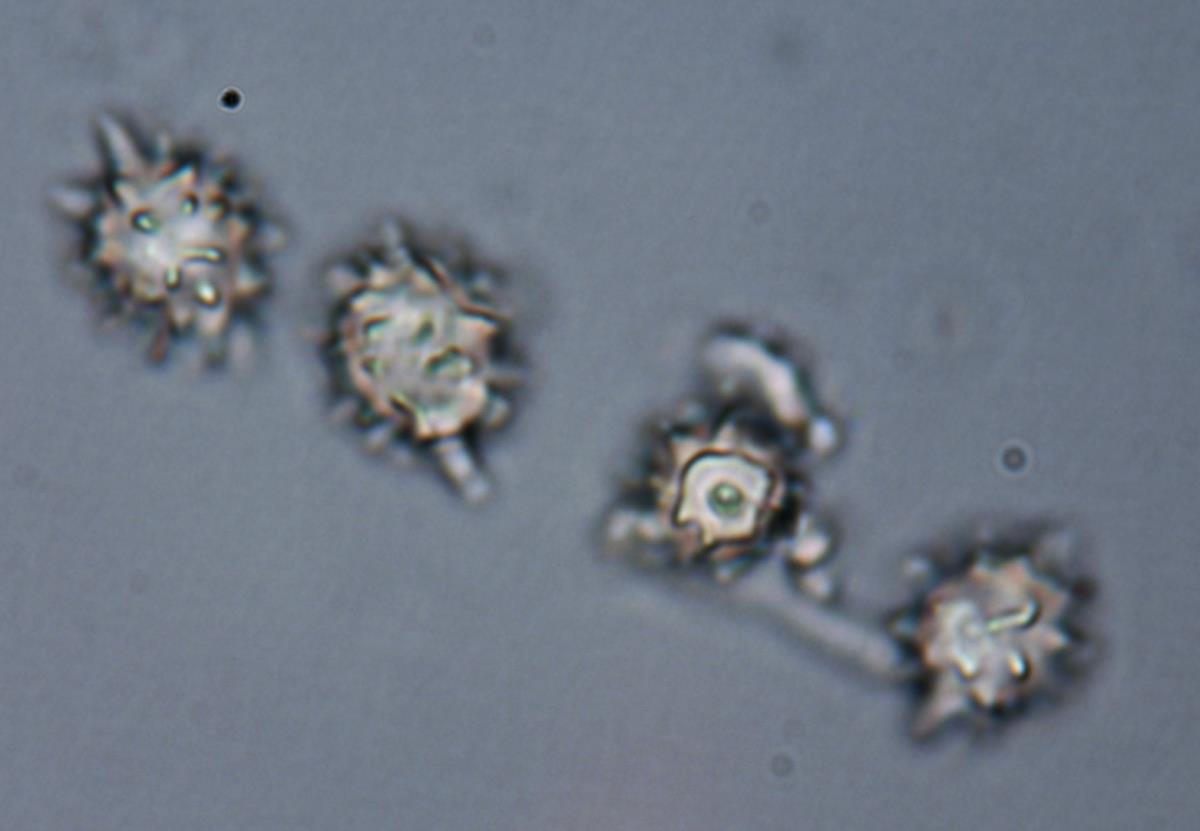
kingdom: Fungi
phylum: Basidiomycota
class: Agaricomycetes
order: Agaricales
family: Stephanosporaceae
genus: Stephanospora
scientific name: Stephanospora poropingao
